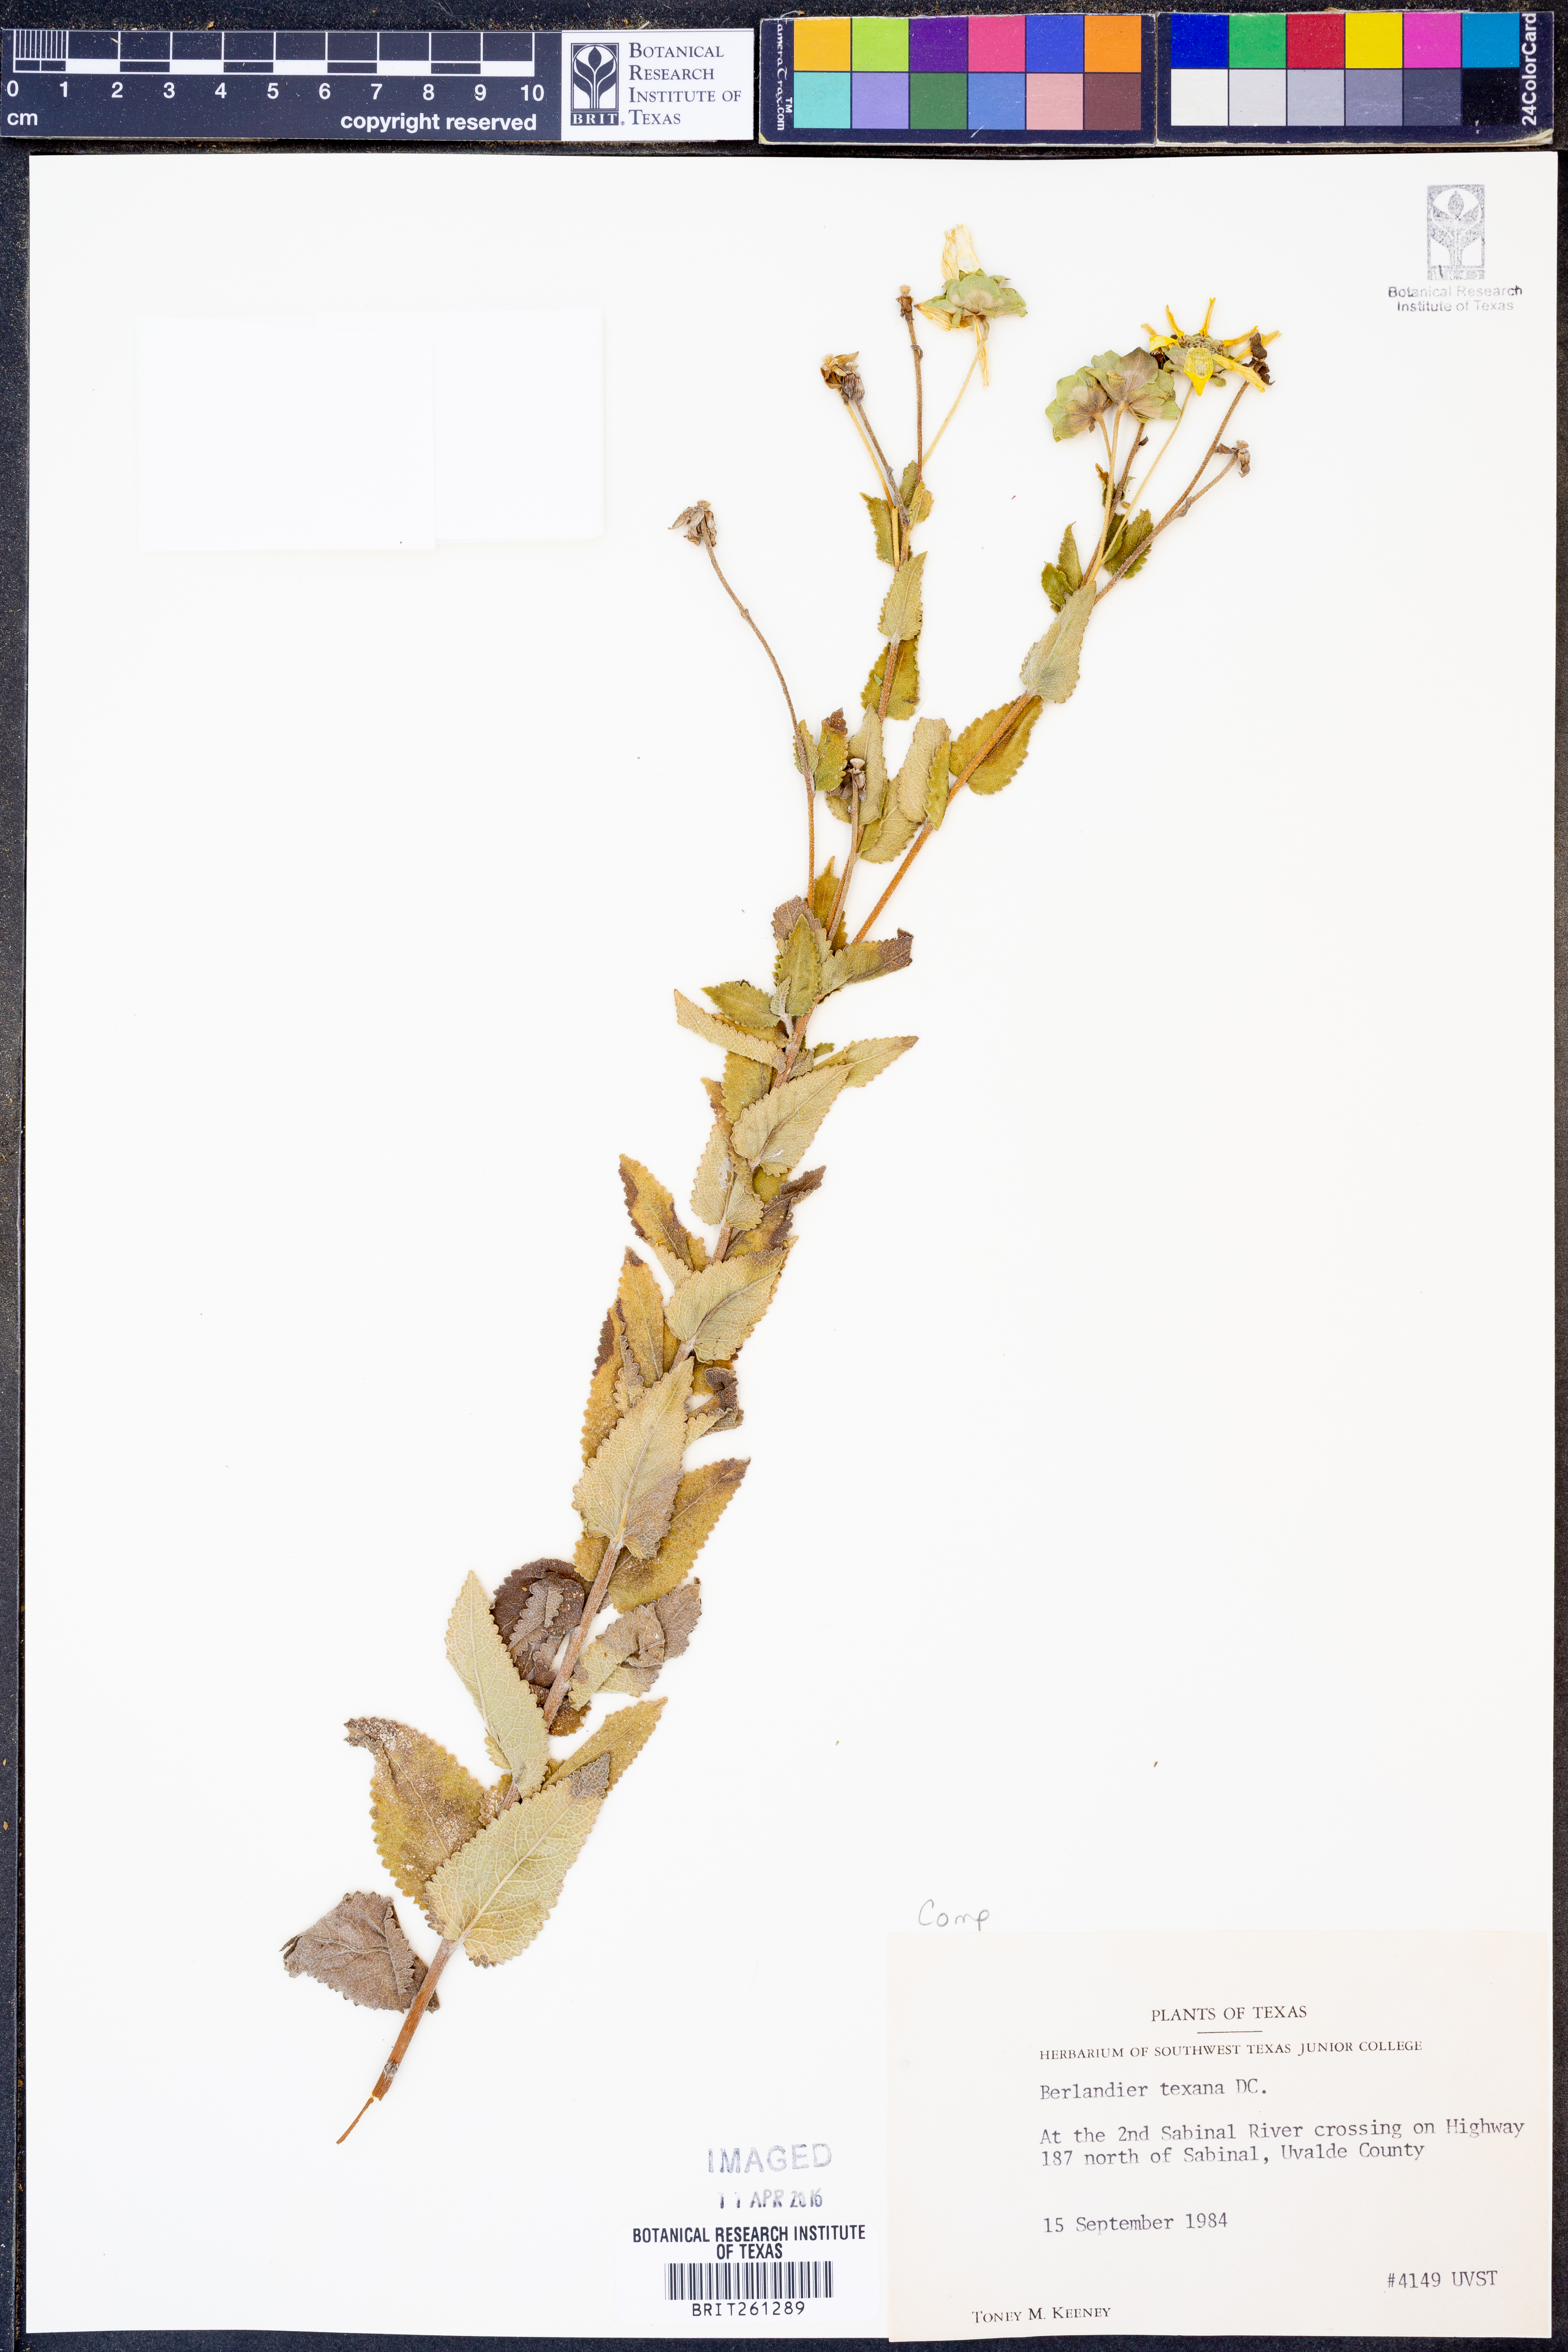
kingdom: Plantae
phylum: Tracheophyta
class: Magnoliopsida
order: Asterales
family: Asteraceae
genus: Berlandiera
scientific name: Berlandiera texana
